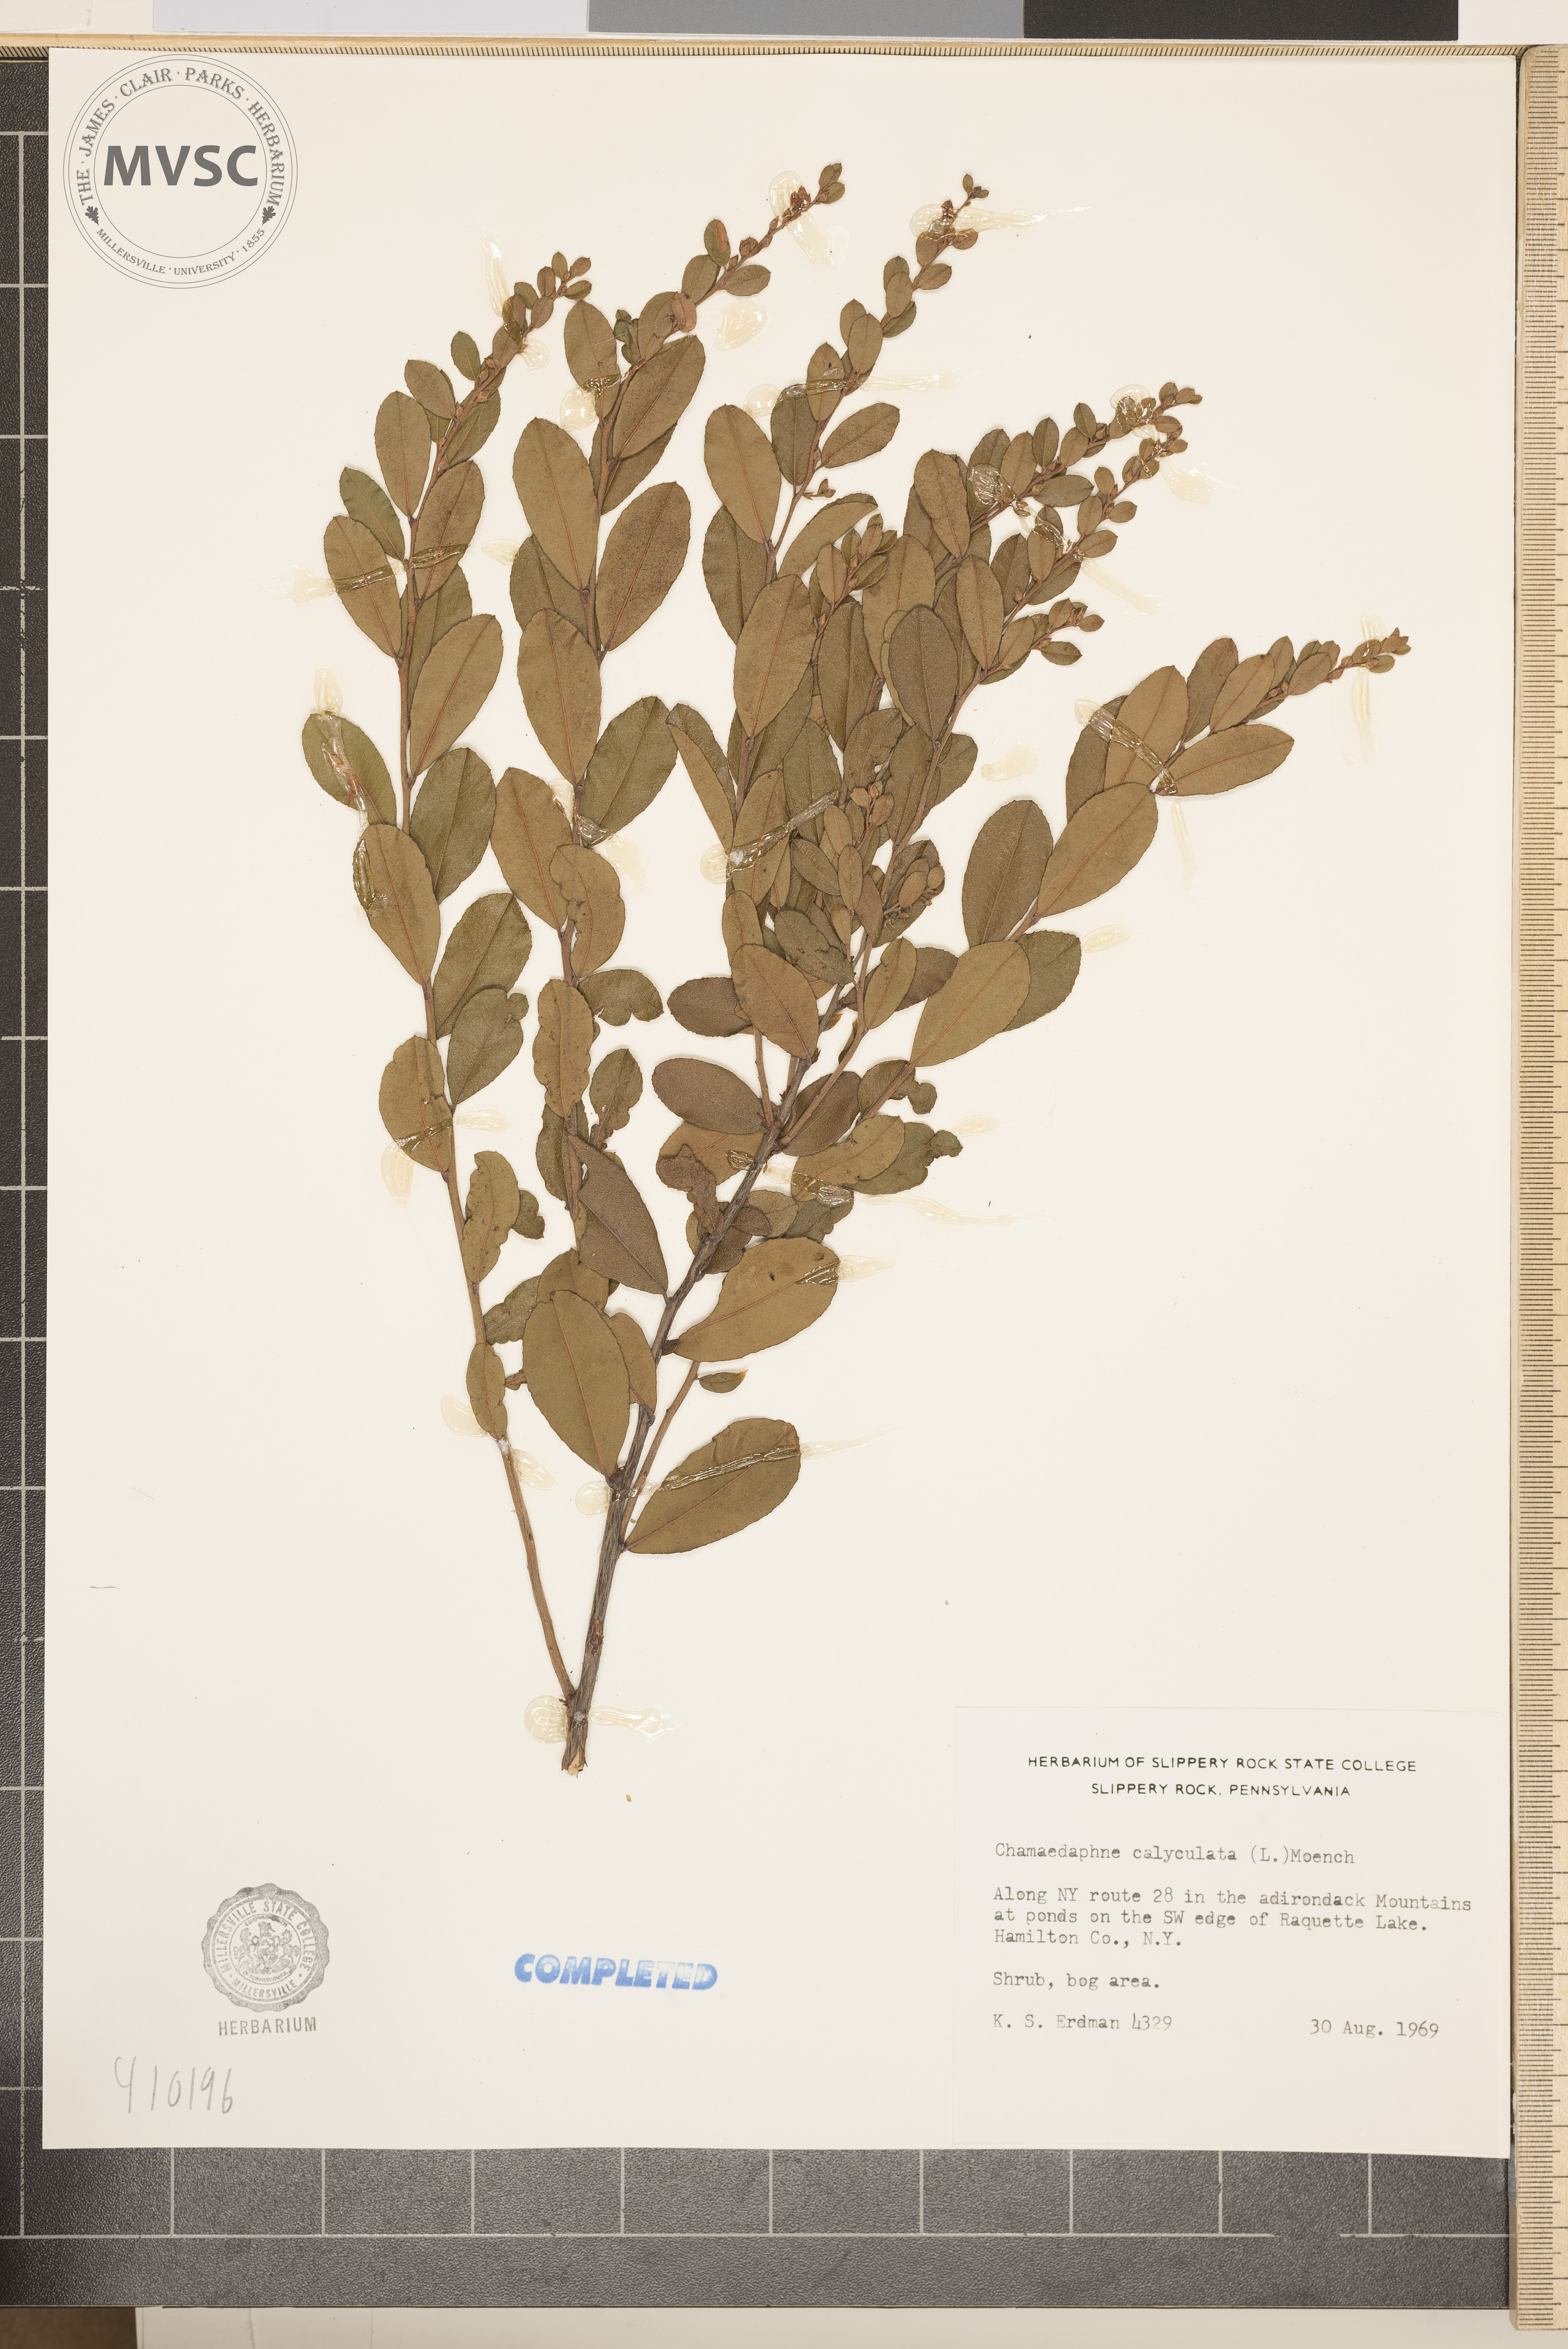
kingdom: Plantae
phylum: Tracheophyta
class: Magnoliopsida
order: Ericales
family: Ericaceae
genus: Chamaedaphne
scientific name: Chamaedaphne calyculata
